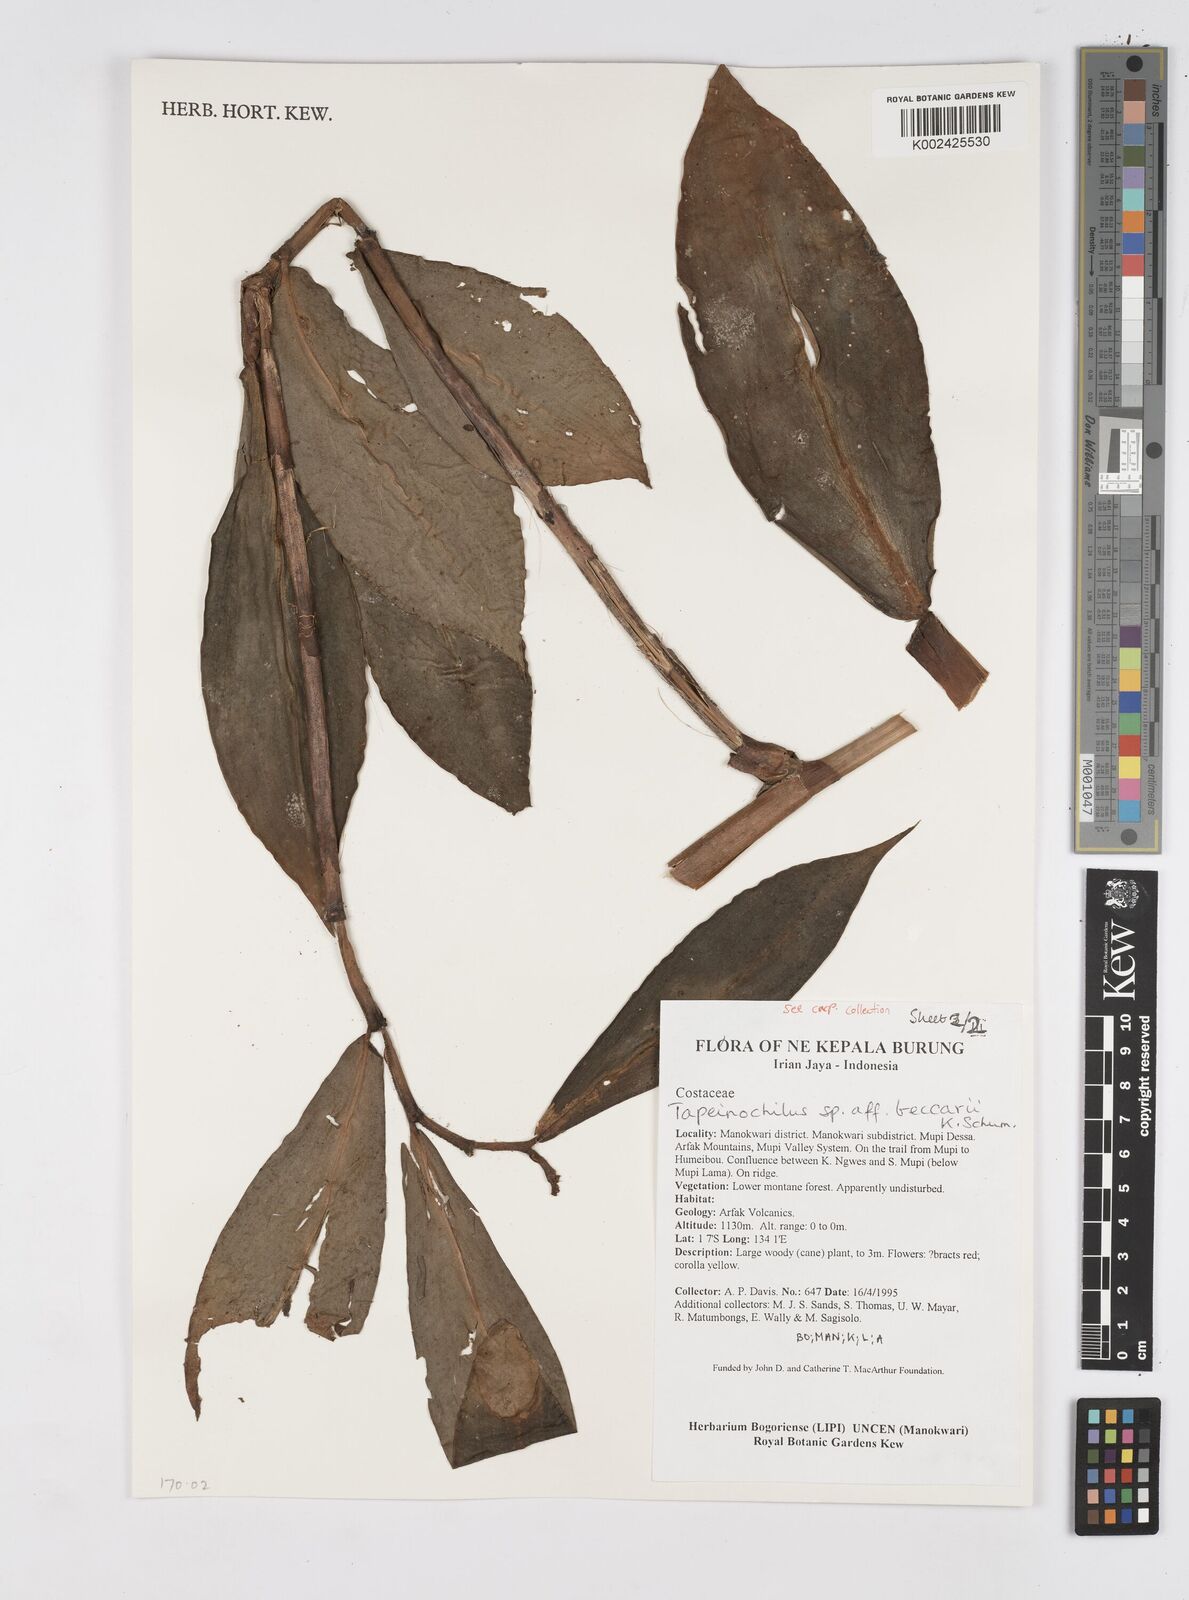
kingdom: Plantae
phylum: Tracheophyta
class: Liliopsida
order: Zingiberales
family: Costaceae
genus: Tapeinochilos
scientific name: Tapeinochilos beccarii
